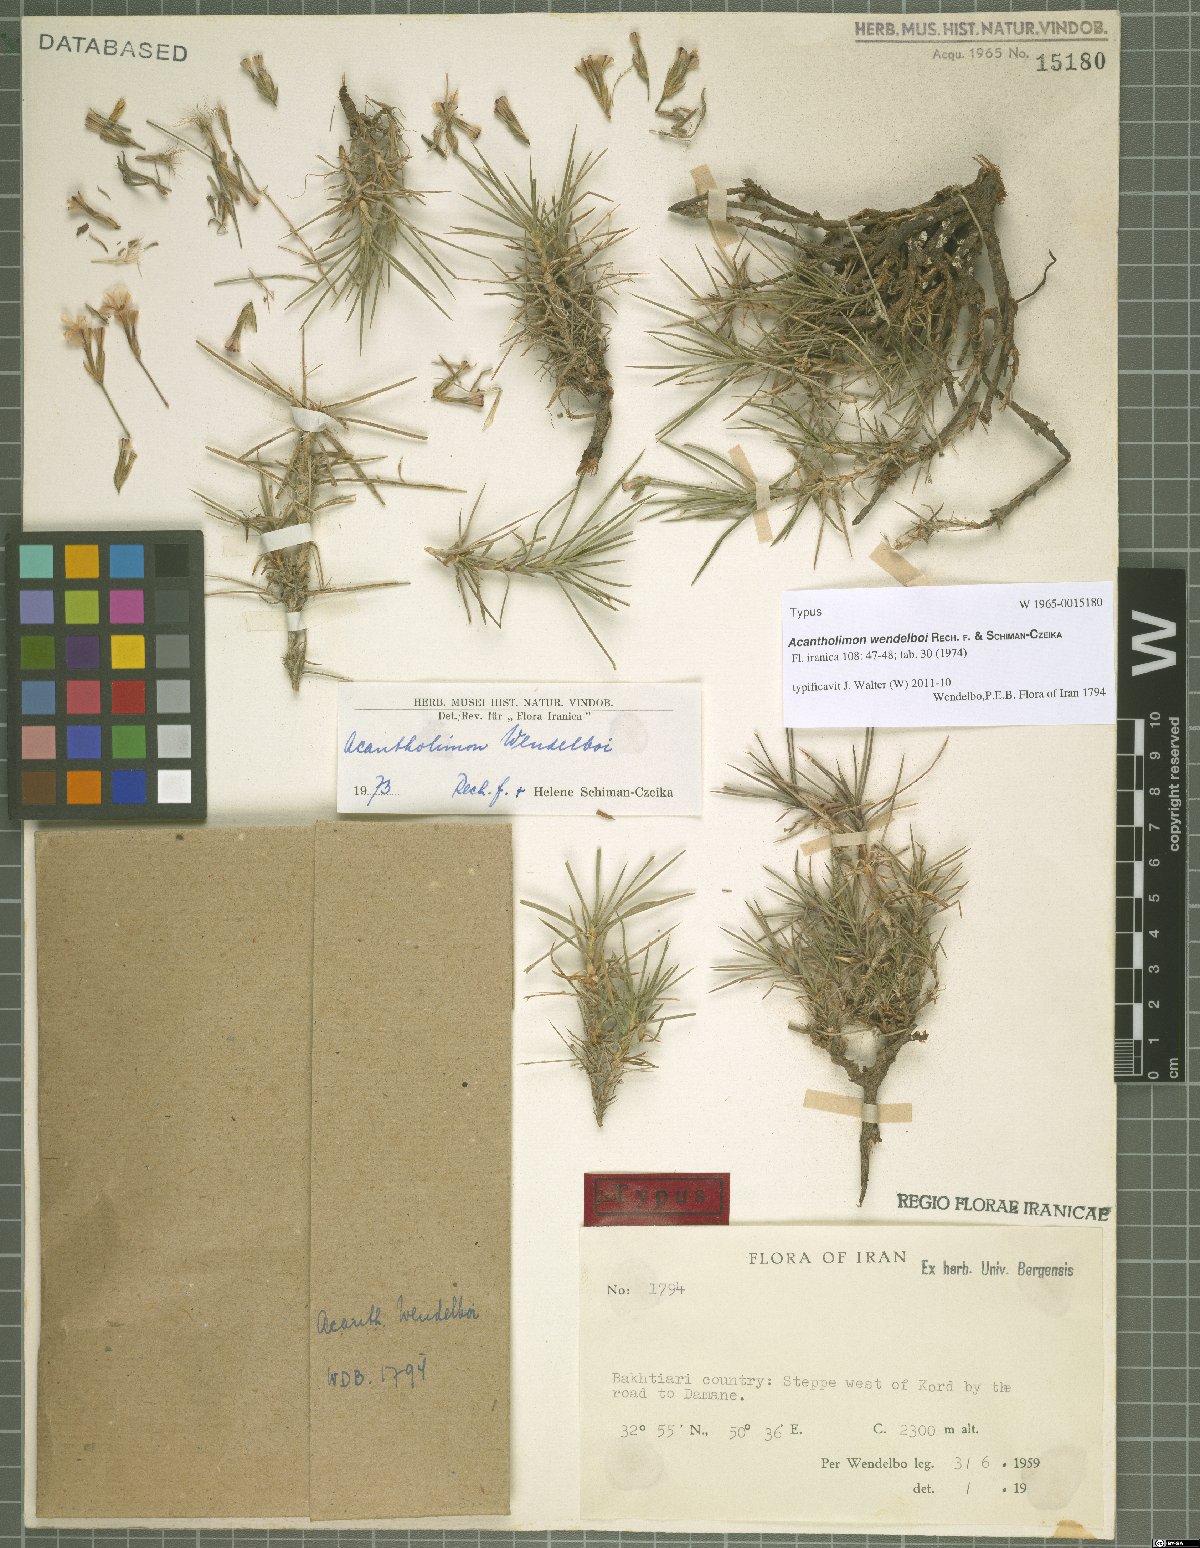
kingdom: Plantae
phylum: Tracheophyta
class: Magnoliopsida
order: Caryophyllales
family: Plumbaginaceae
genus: Acantholimon
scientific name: Acantholimon wendelboi
